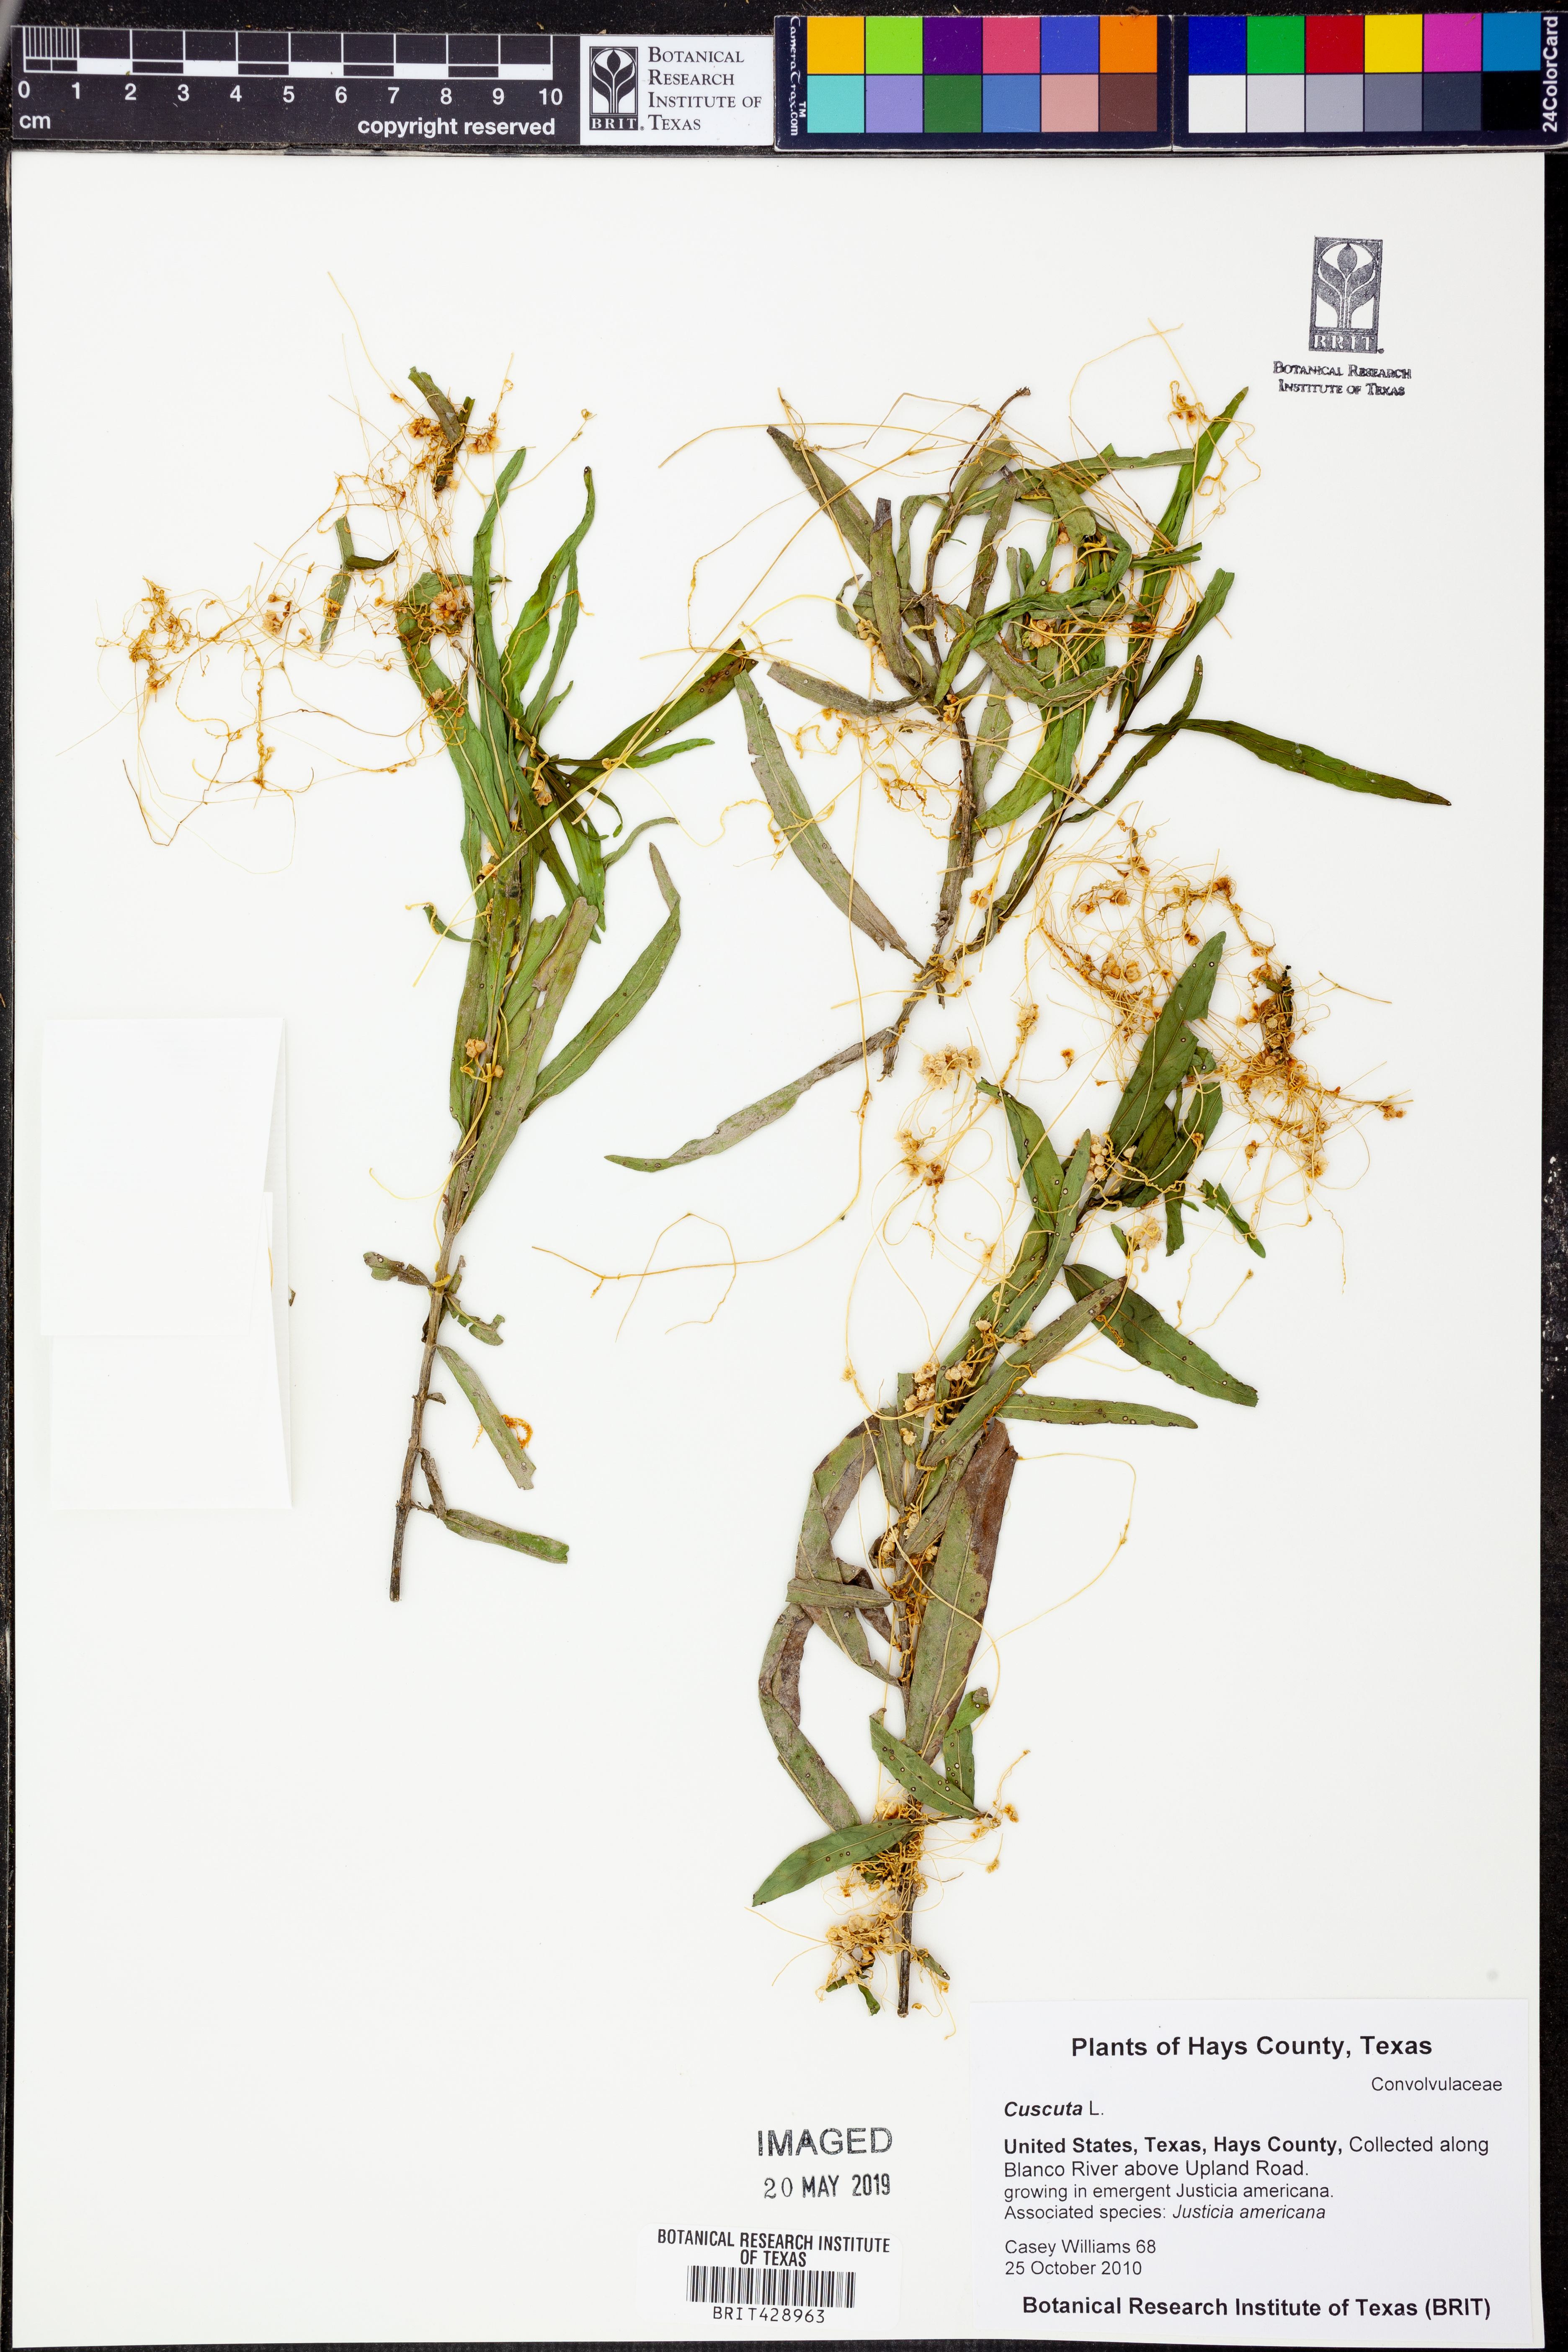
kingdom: Plantae
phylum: Tracheophyta
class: Magnoliopsida
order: Solanales
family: Convolvulaceae
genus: Cuscuta
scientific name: Cuscuta
